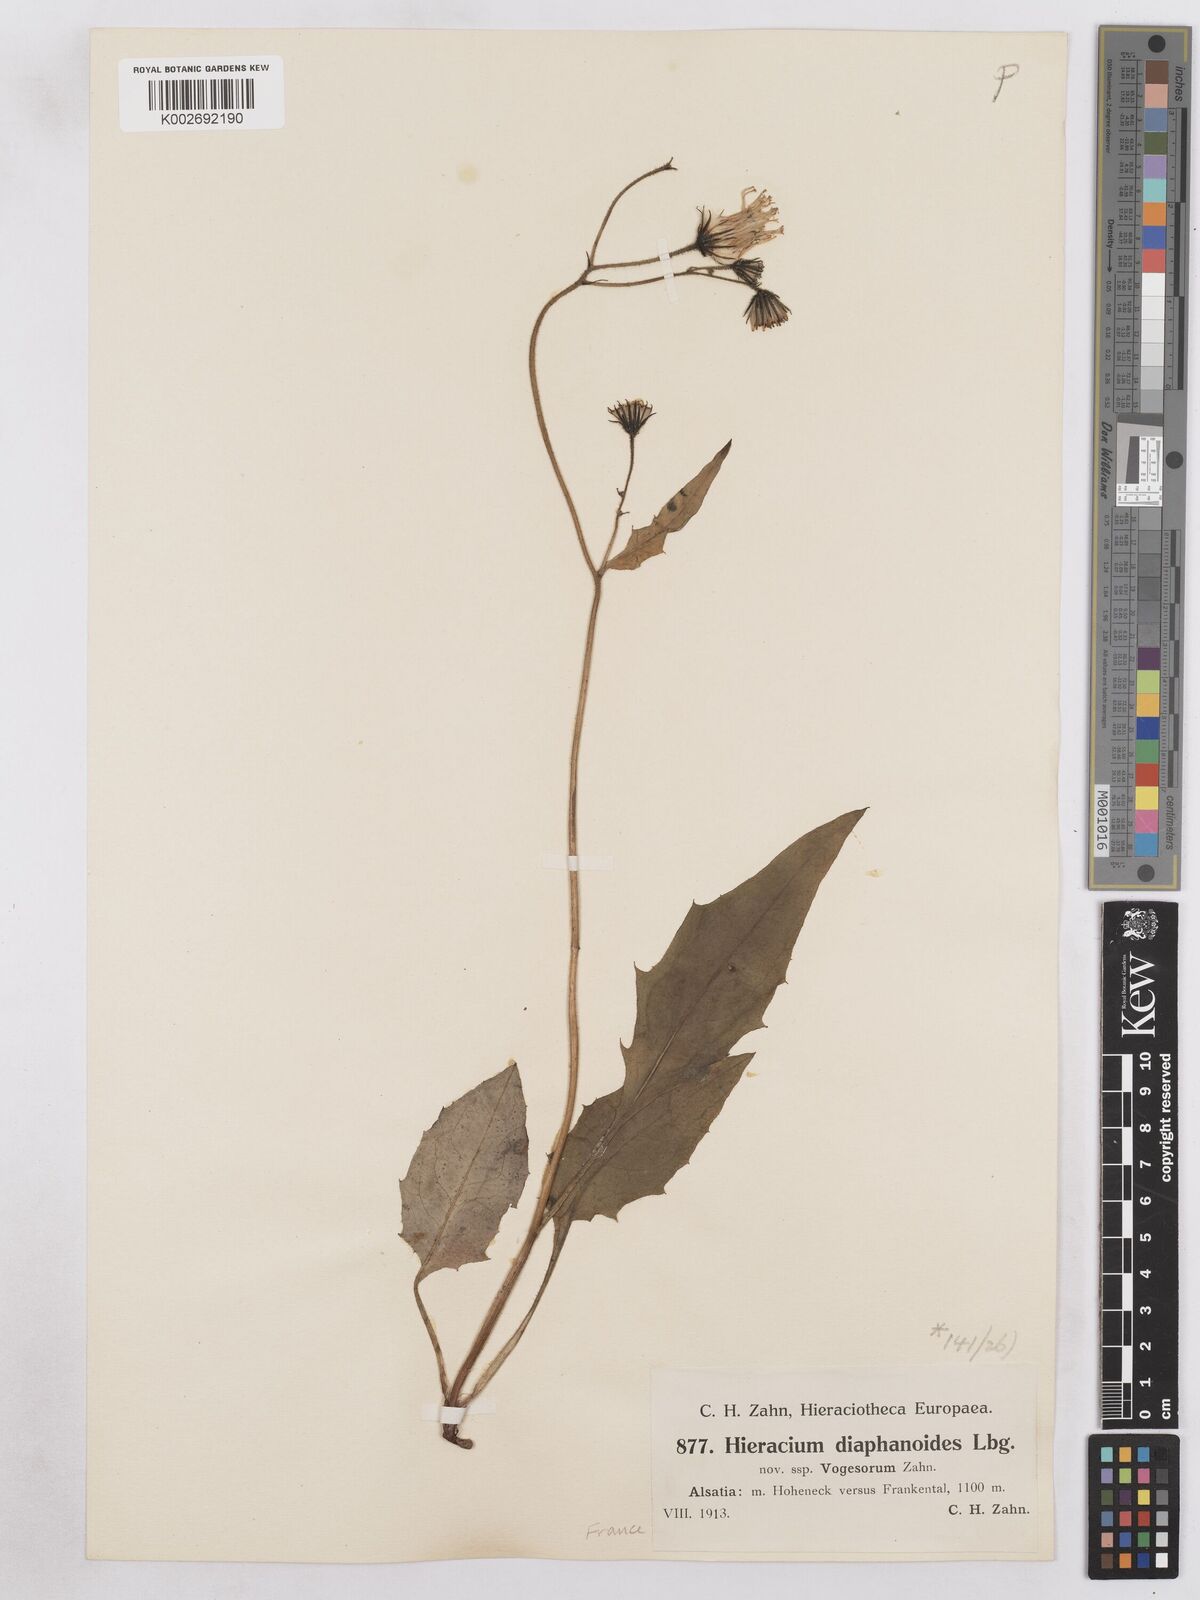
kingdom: Plantae
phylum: Tracheophyta
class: Magnoliopsida
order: Asterales
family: Asteraceae
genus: Hieracium
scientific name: Hieracium diaphanoides
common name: Fine-bracted hawkweed
